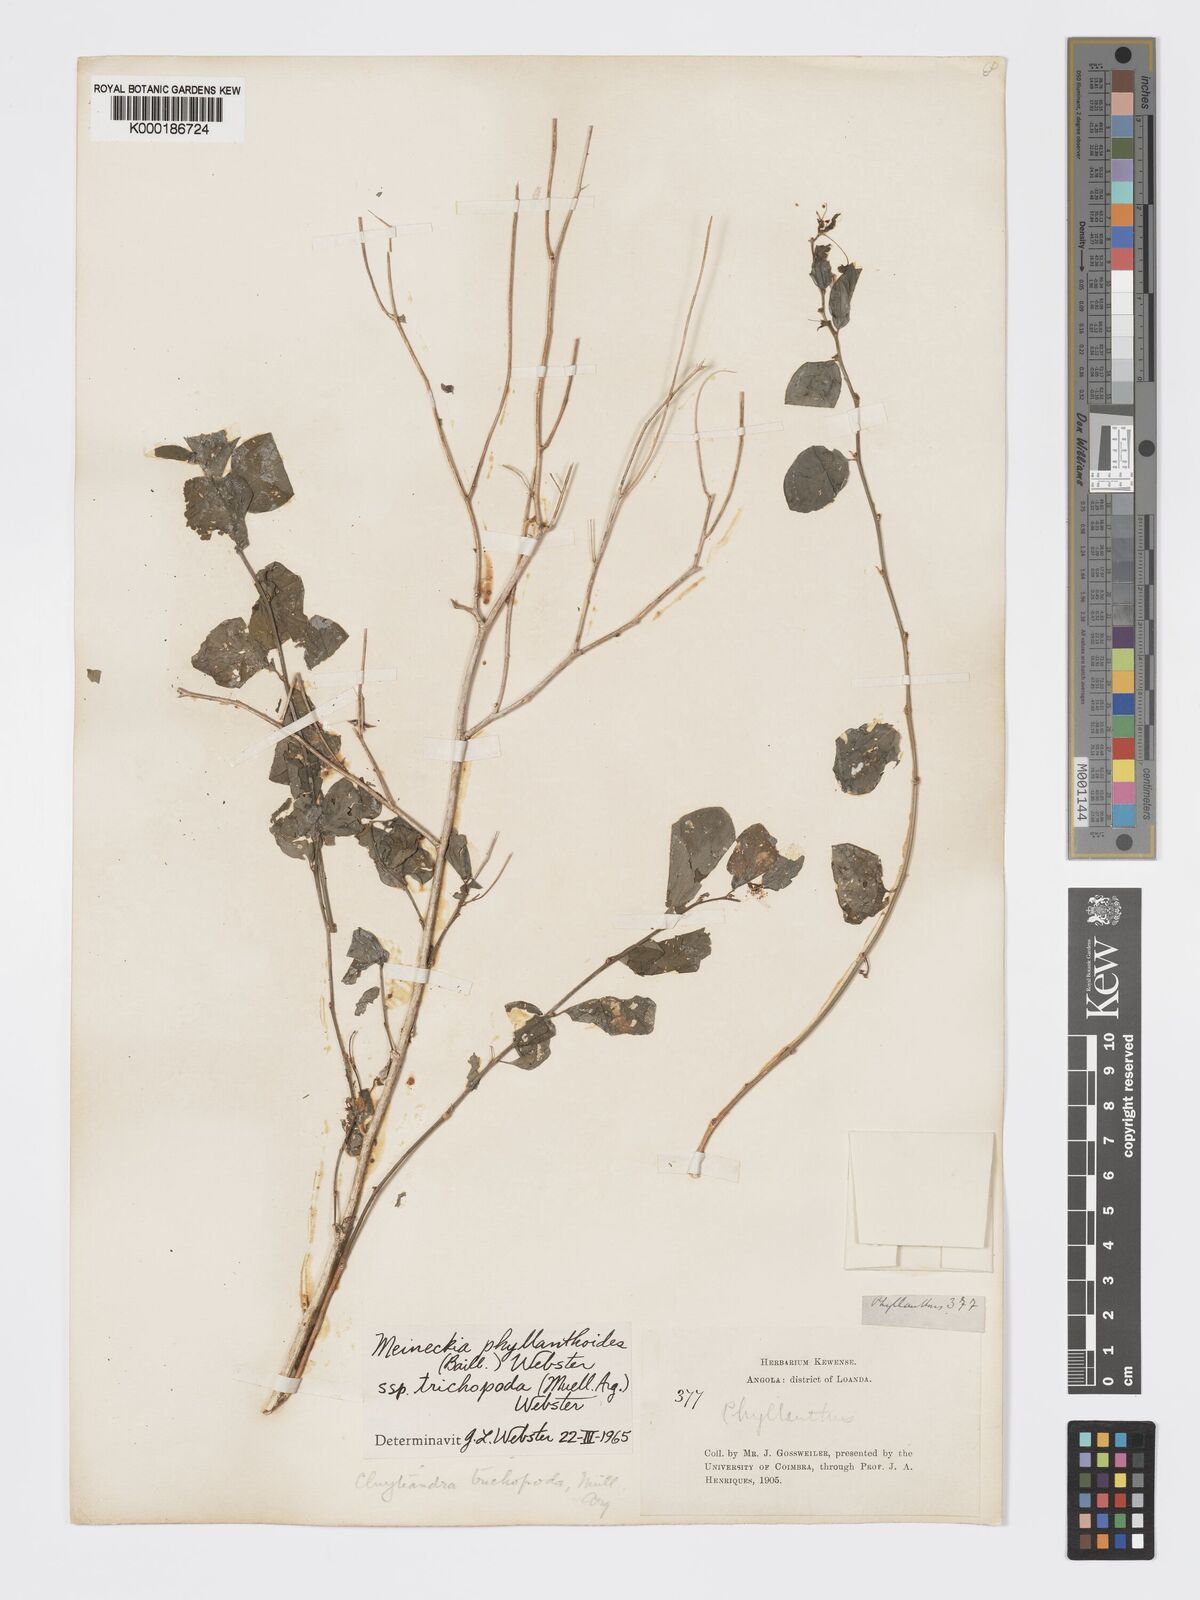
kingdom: Plantae
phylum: Tracheophyta
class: Magnoliopsida
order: Malpighiales
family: Phyllanthaceae
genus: Meineckia
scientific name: Meineckia phyllanthoides
